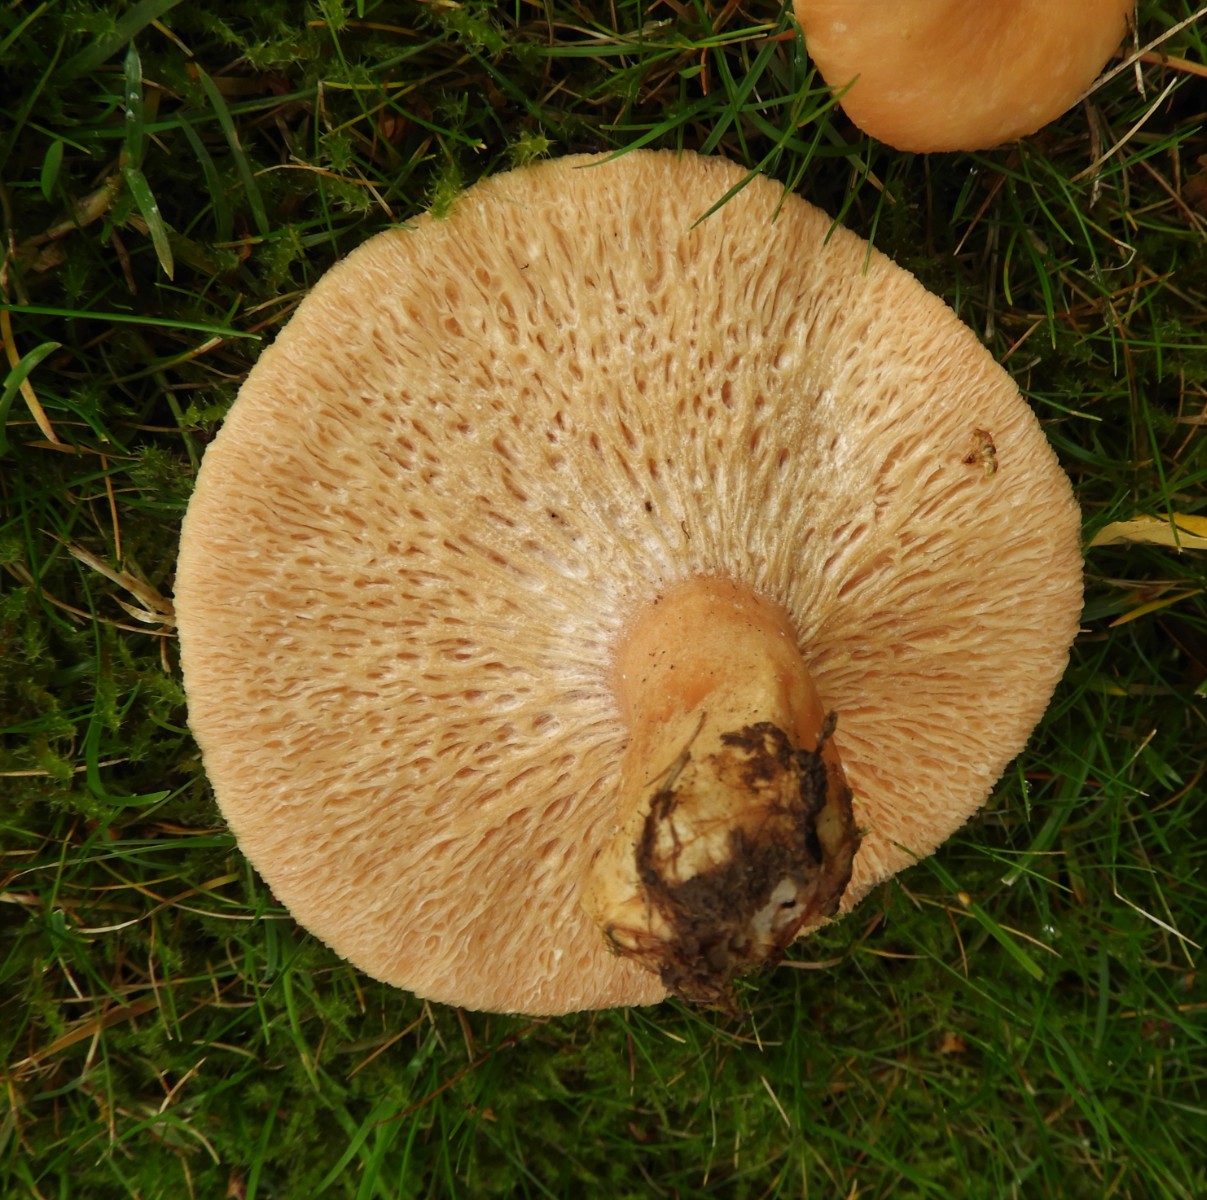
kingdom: Fungi
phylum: Basidiomycota
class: Agaricomycetes
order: Russulales
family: Russulaceae
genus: Lactarius
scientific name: Lactarius pubescens
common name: dunet mælkehat
